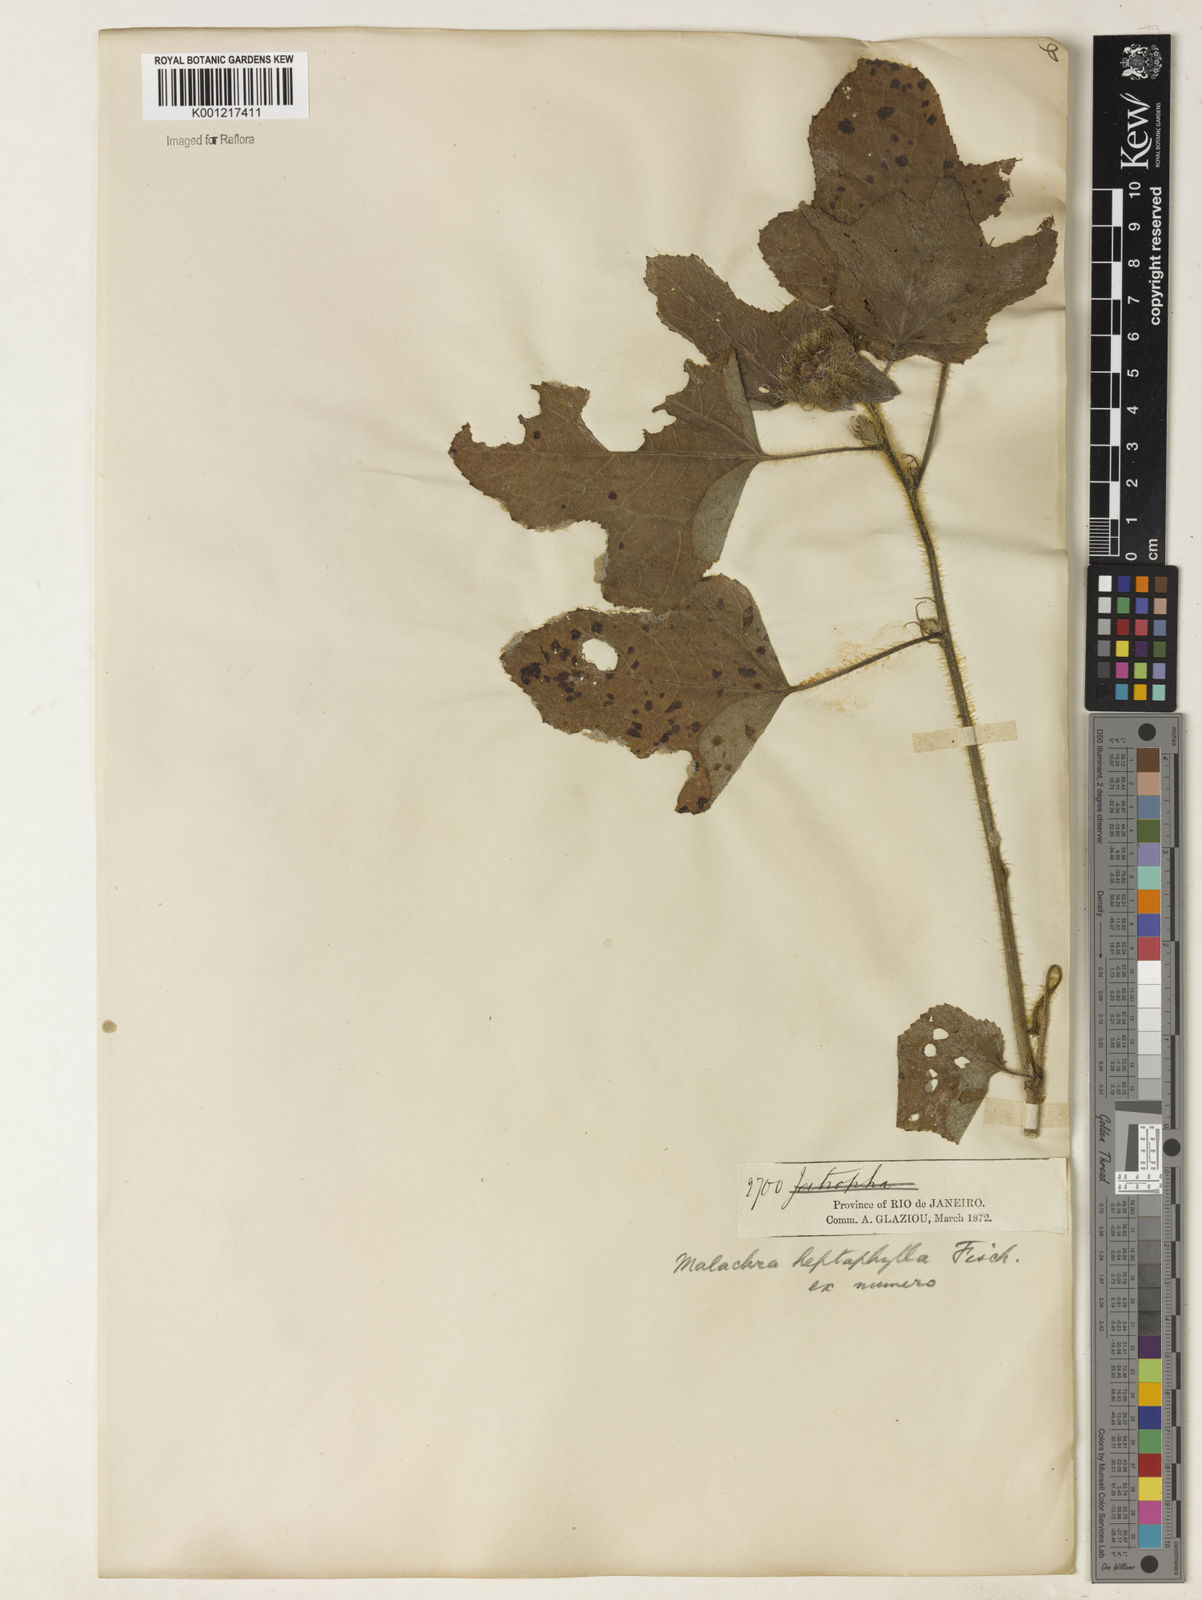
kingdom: Plantae
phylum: Tracheophyta
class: Magnoliopsida
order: Malvales
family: Malvaceae
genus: Malachra
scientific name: Malachra capitata
